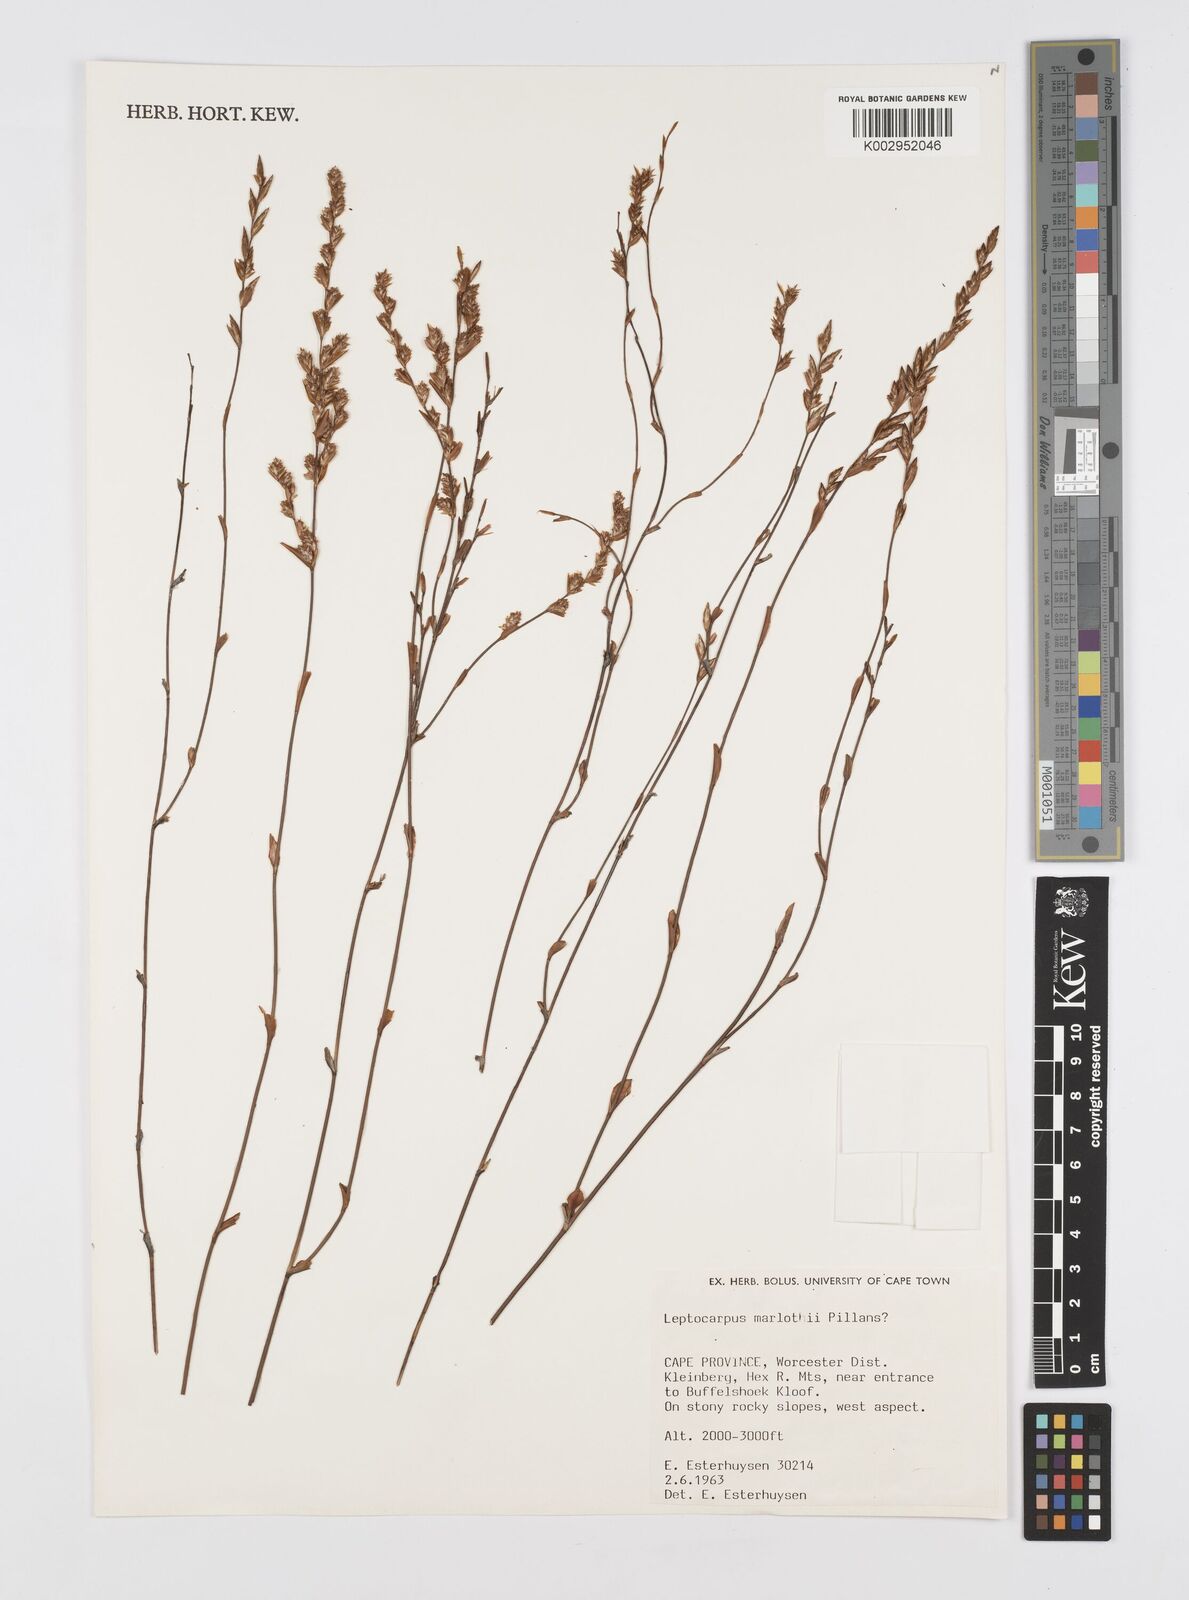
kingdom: Plantae
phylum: Tracheophyta
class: Liliopsida
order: Poales
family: Restionaceae
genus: Restio
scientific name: Restio marlothii
